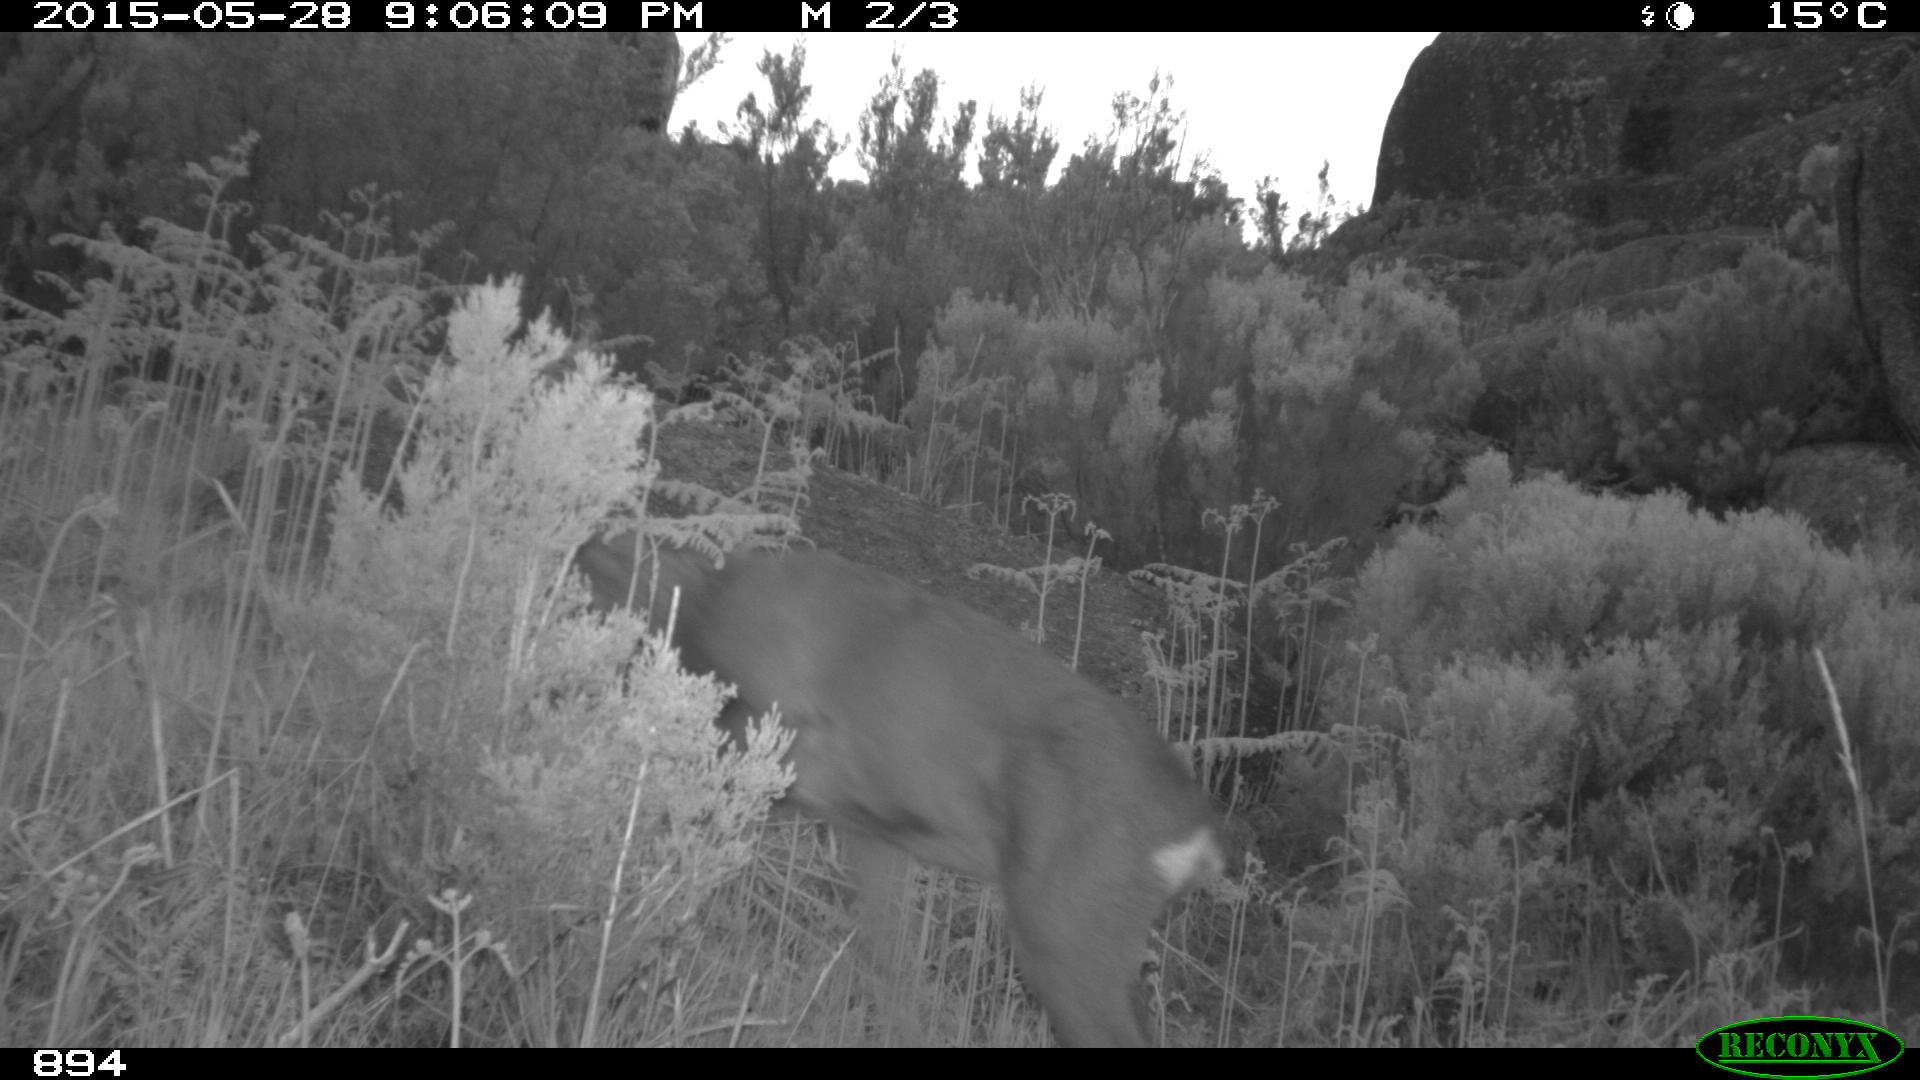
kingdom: Animalia
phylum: Chordata
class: Mammalia
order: Artiodactyla
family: Cervidae
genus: Capreolus
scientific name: Capreolus capreolus
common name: Western roe deer
